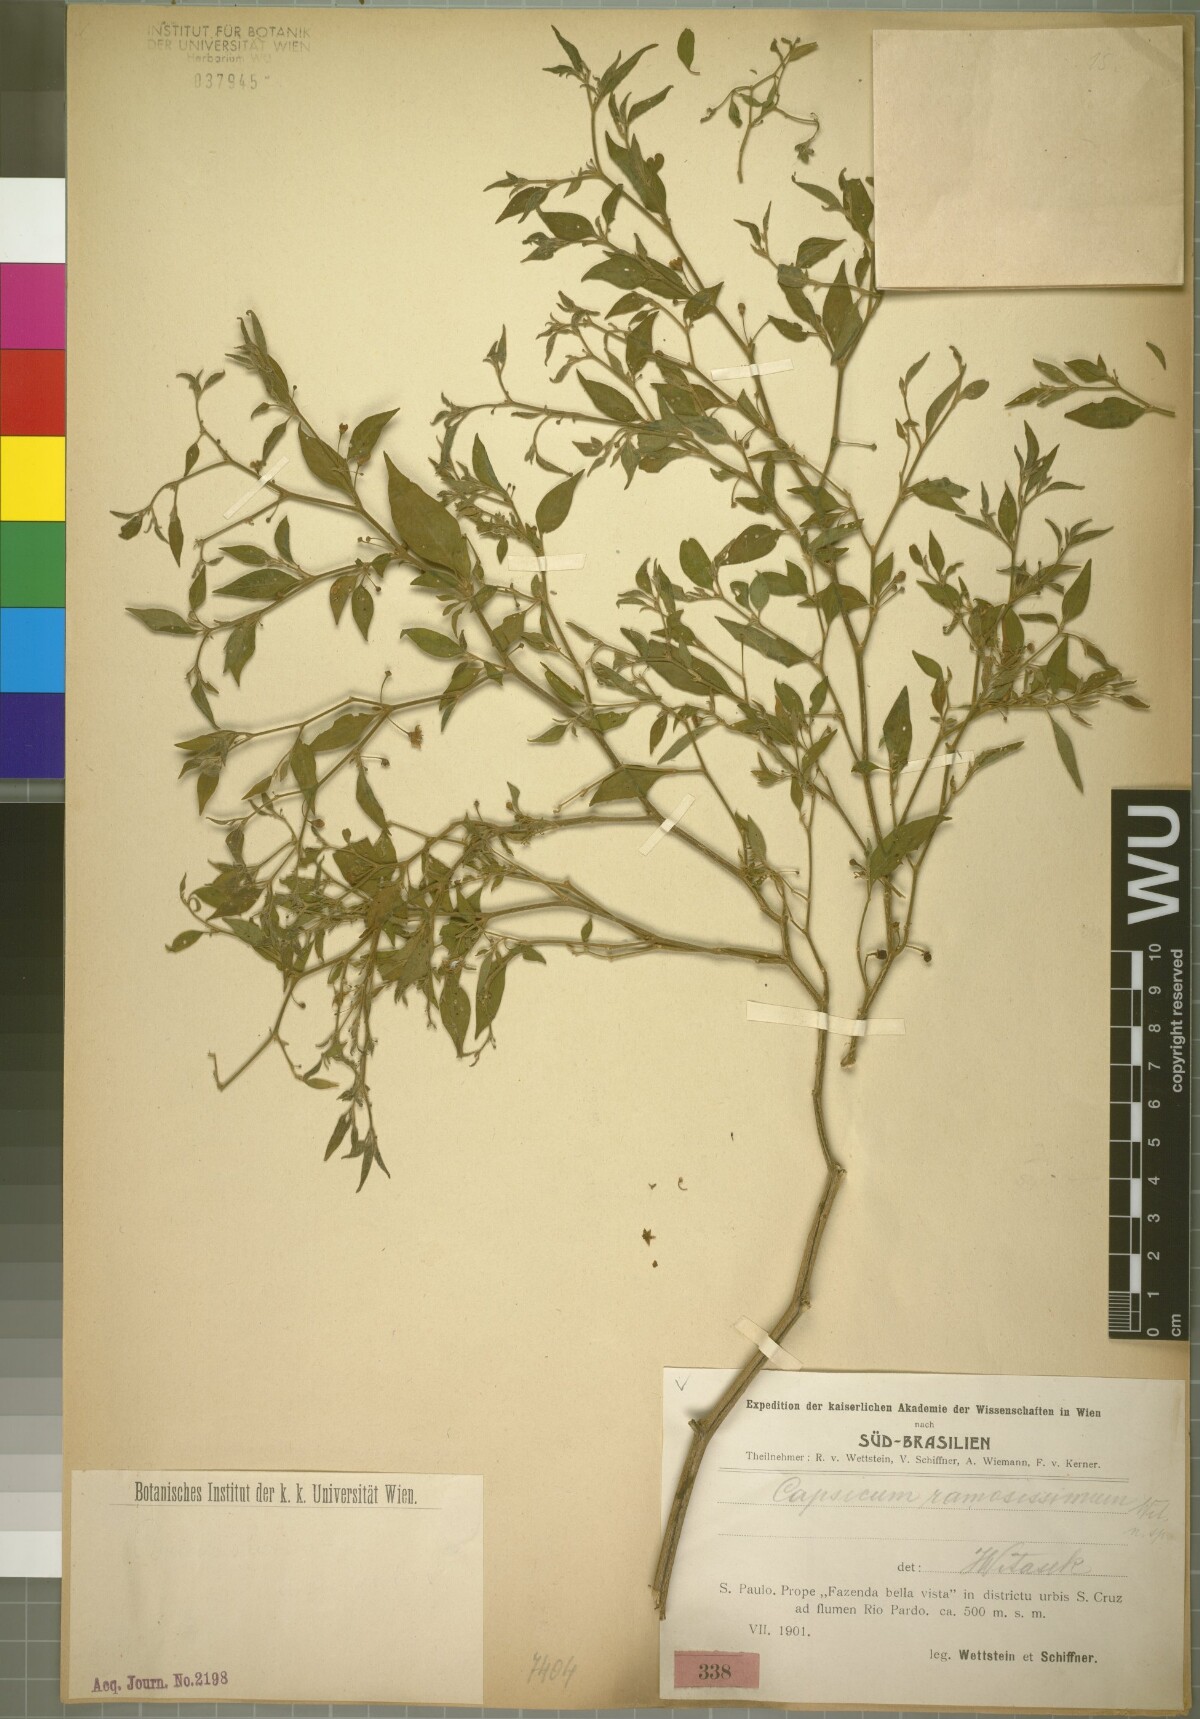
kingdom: Plantae
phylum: Tracheophyta
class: Magnoliopsida
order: Solanales
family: Solanaceae
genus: Capsicum
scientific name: Capsicum flexuosum
